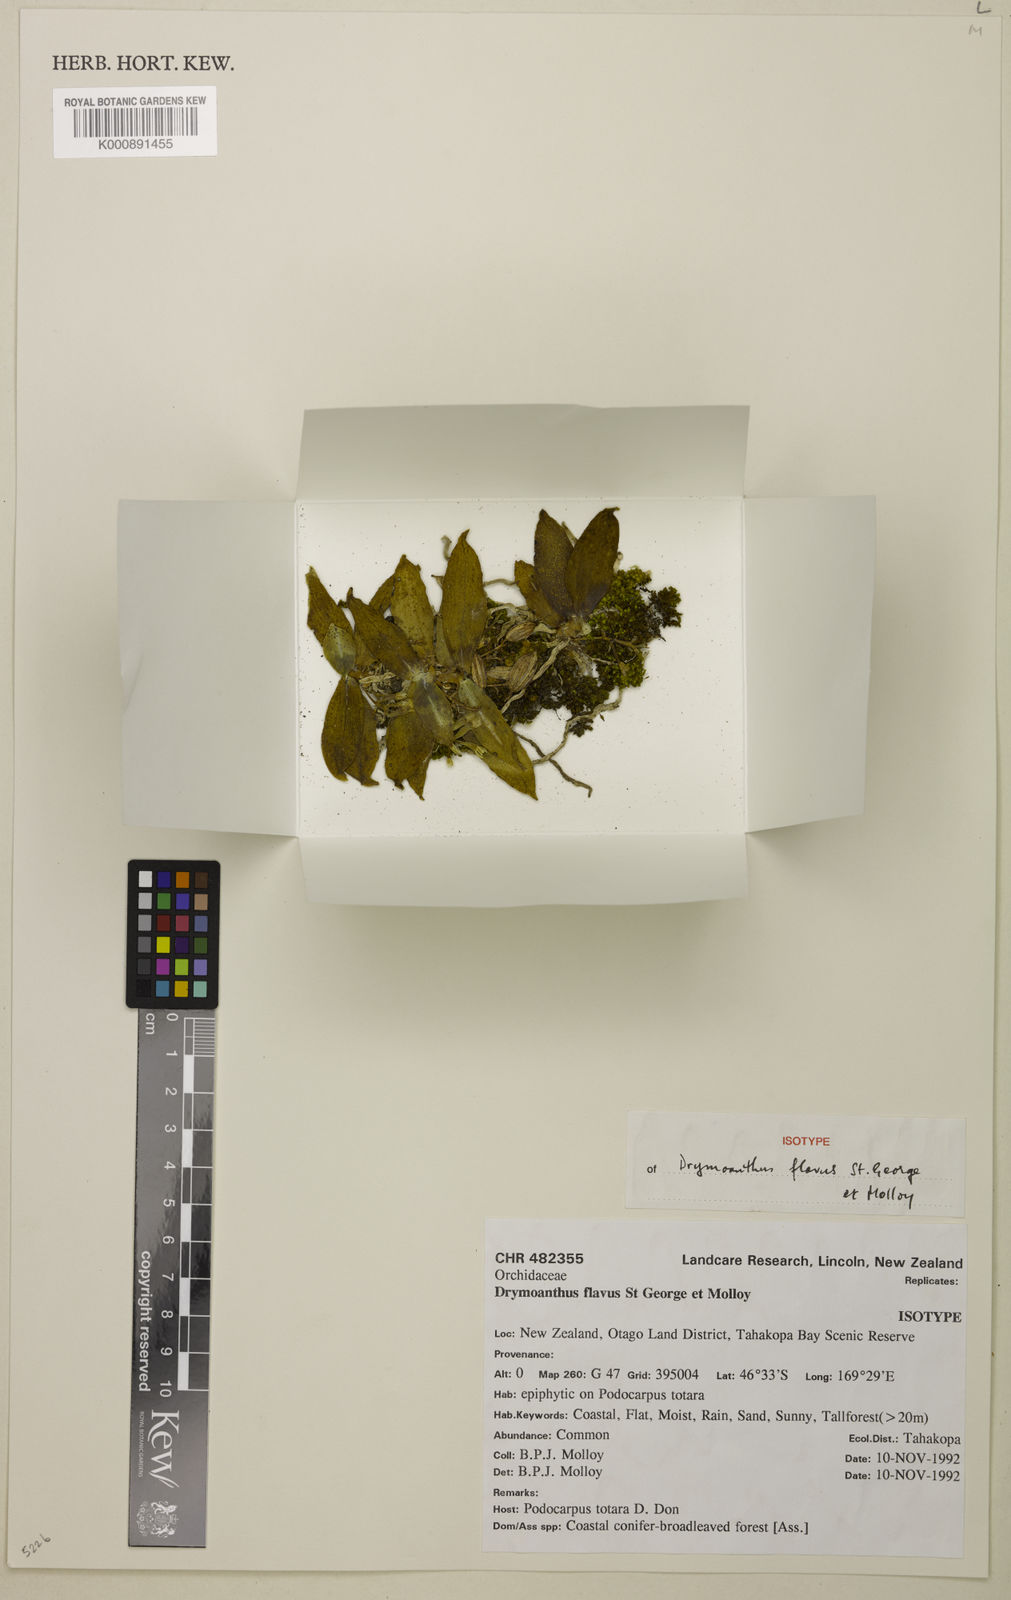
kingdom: Plantae
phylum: Tracheophyta
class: Liliopsida
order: Asparagales
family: Orchidaceae
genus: Drymoanthus
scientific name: Drymoanthus flavus
